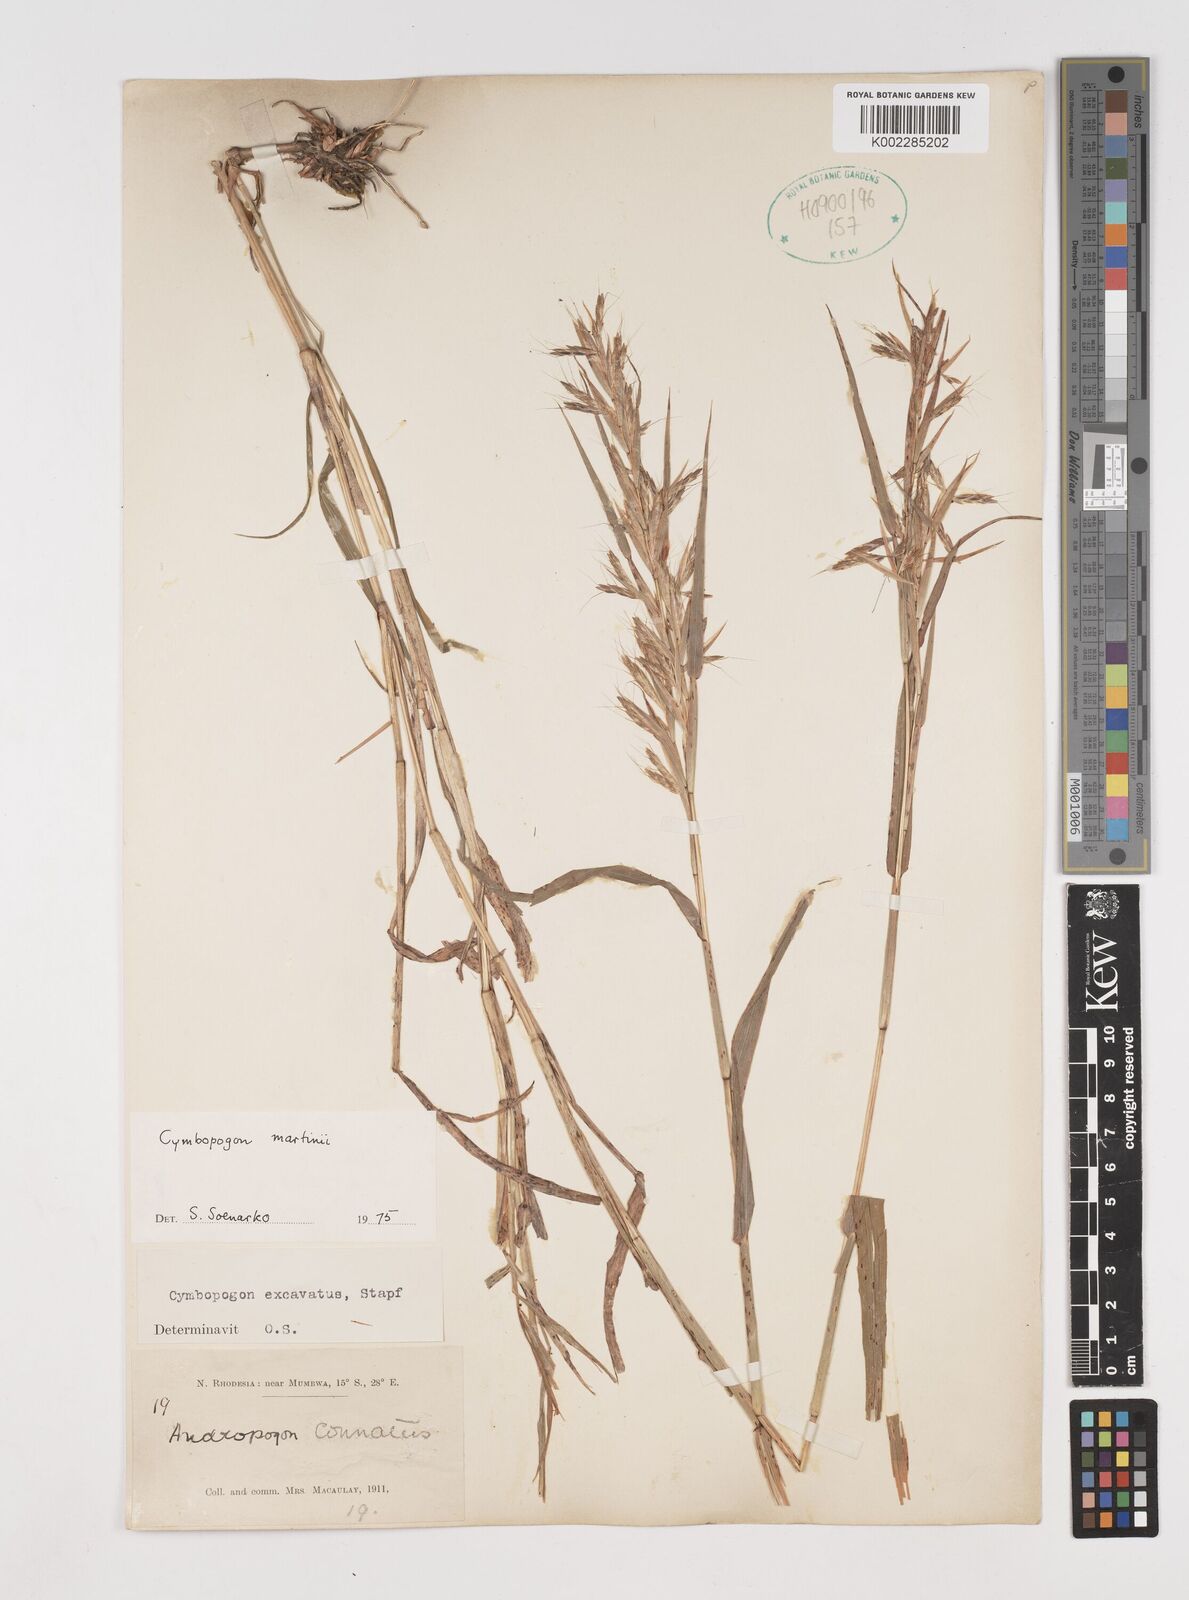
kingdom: Plantae
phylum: Tracheophyta
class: Liliopsida
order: Poales
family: Poaceae
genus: Cymbopogon
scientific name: Cymbopogon martini
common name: Ginger grass
